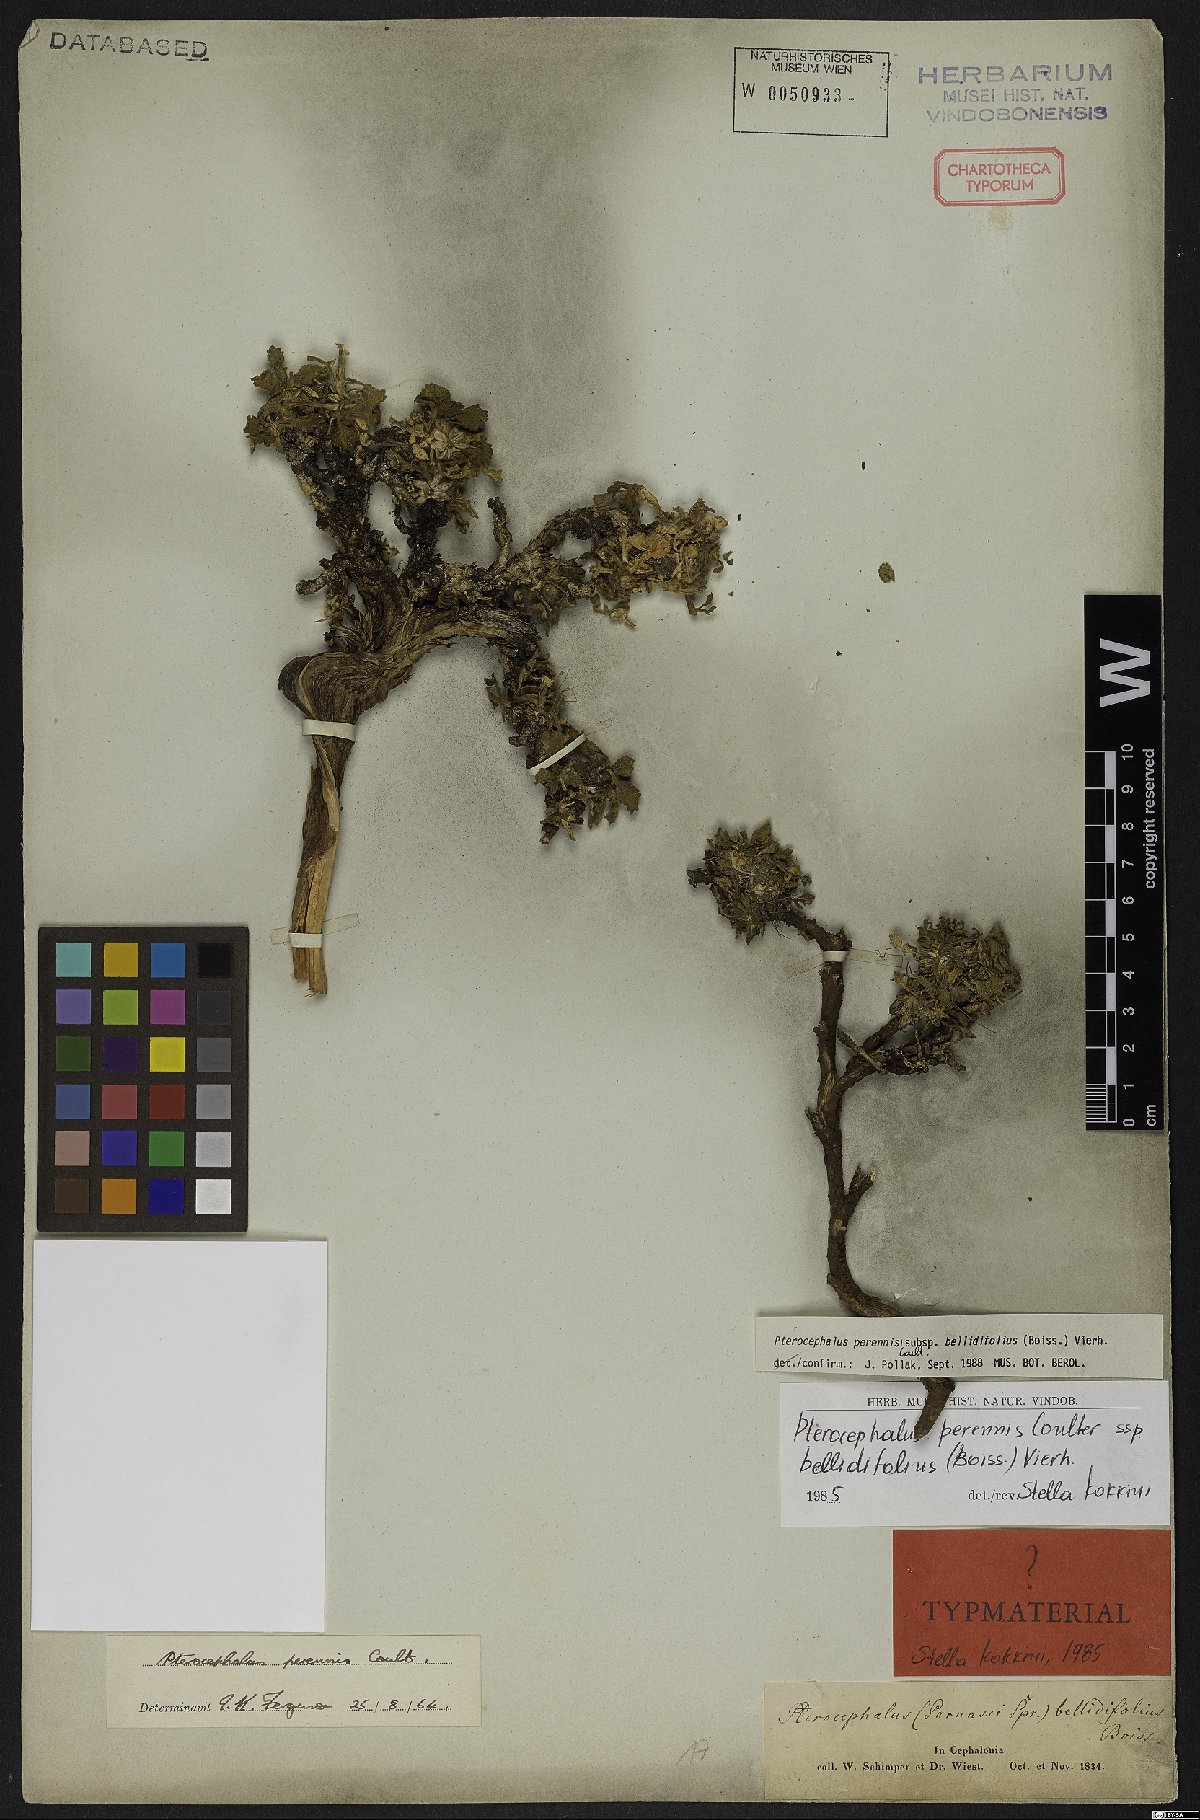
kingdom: Plantae
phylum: Tracheophyta
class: Magnoliopsida
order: Dipsacales
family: Caprifoliaceae
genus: Pterocephalus
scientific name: Pterocephalus perennis
